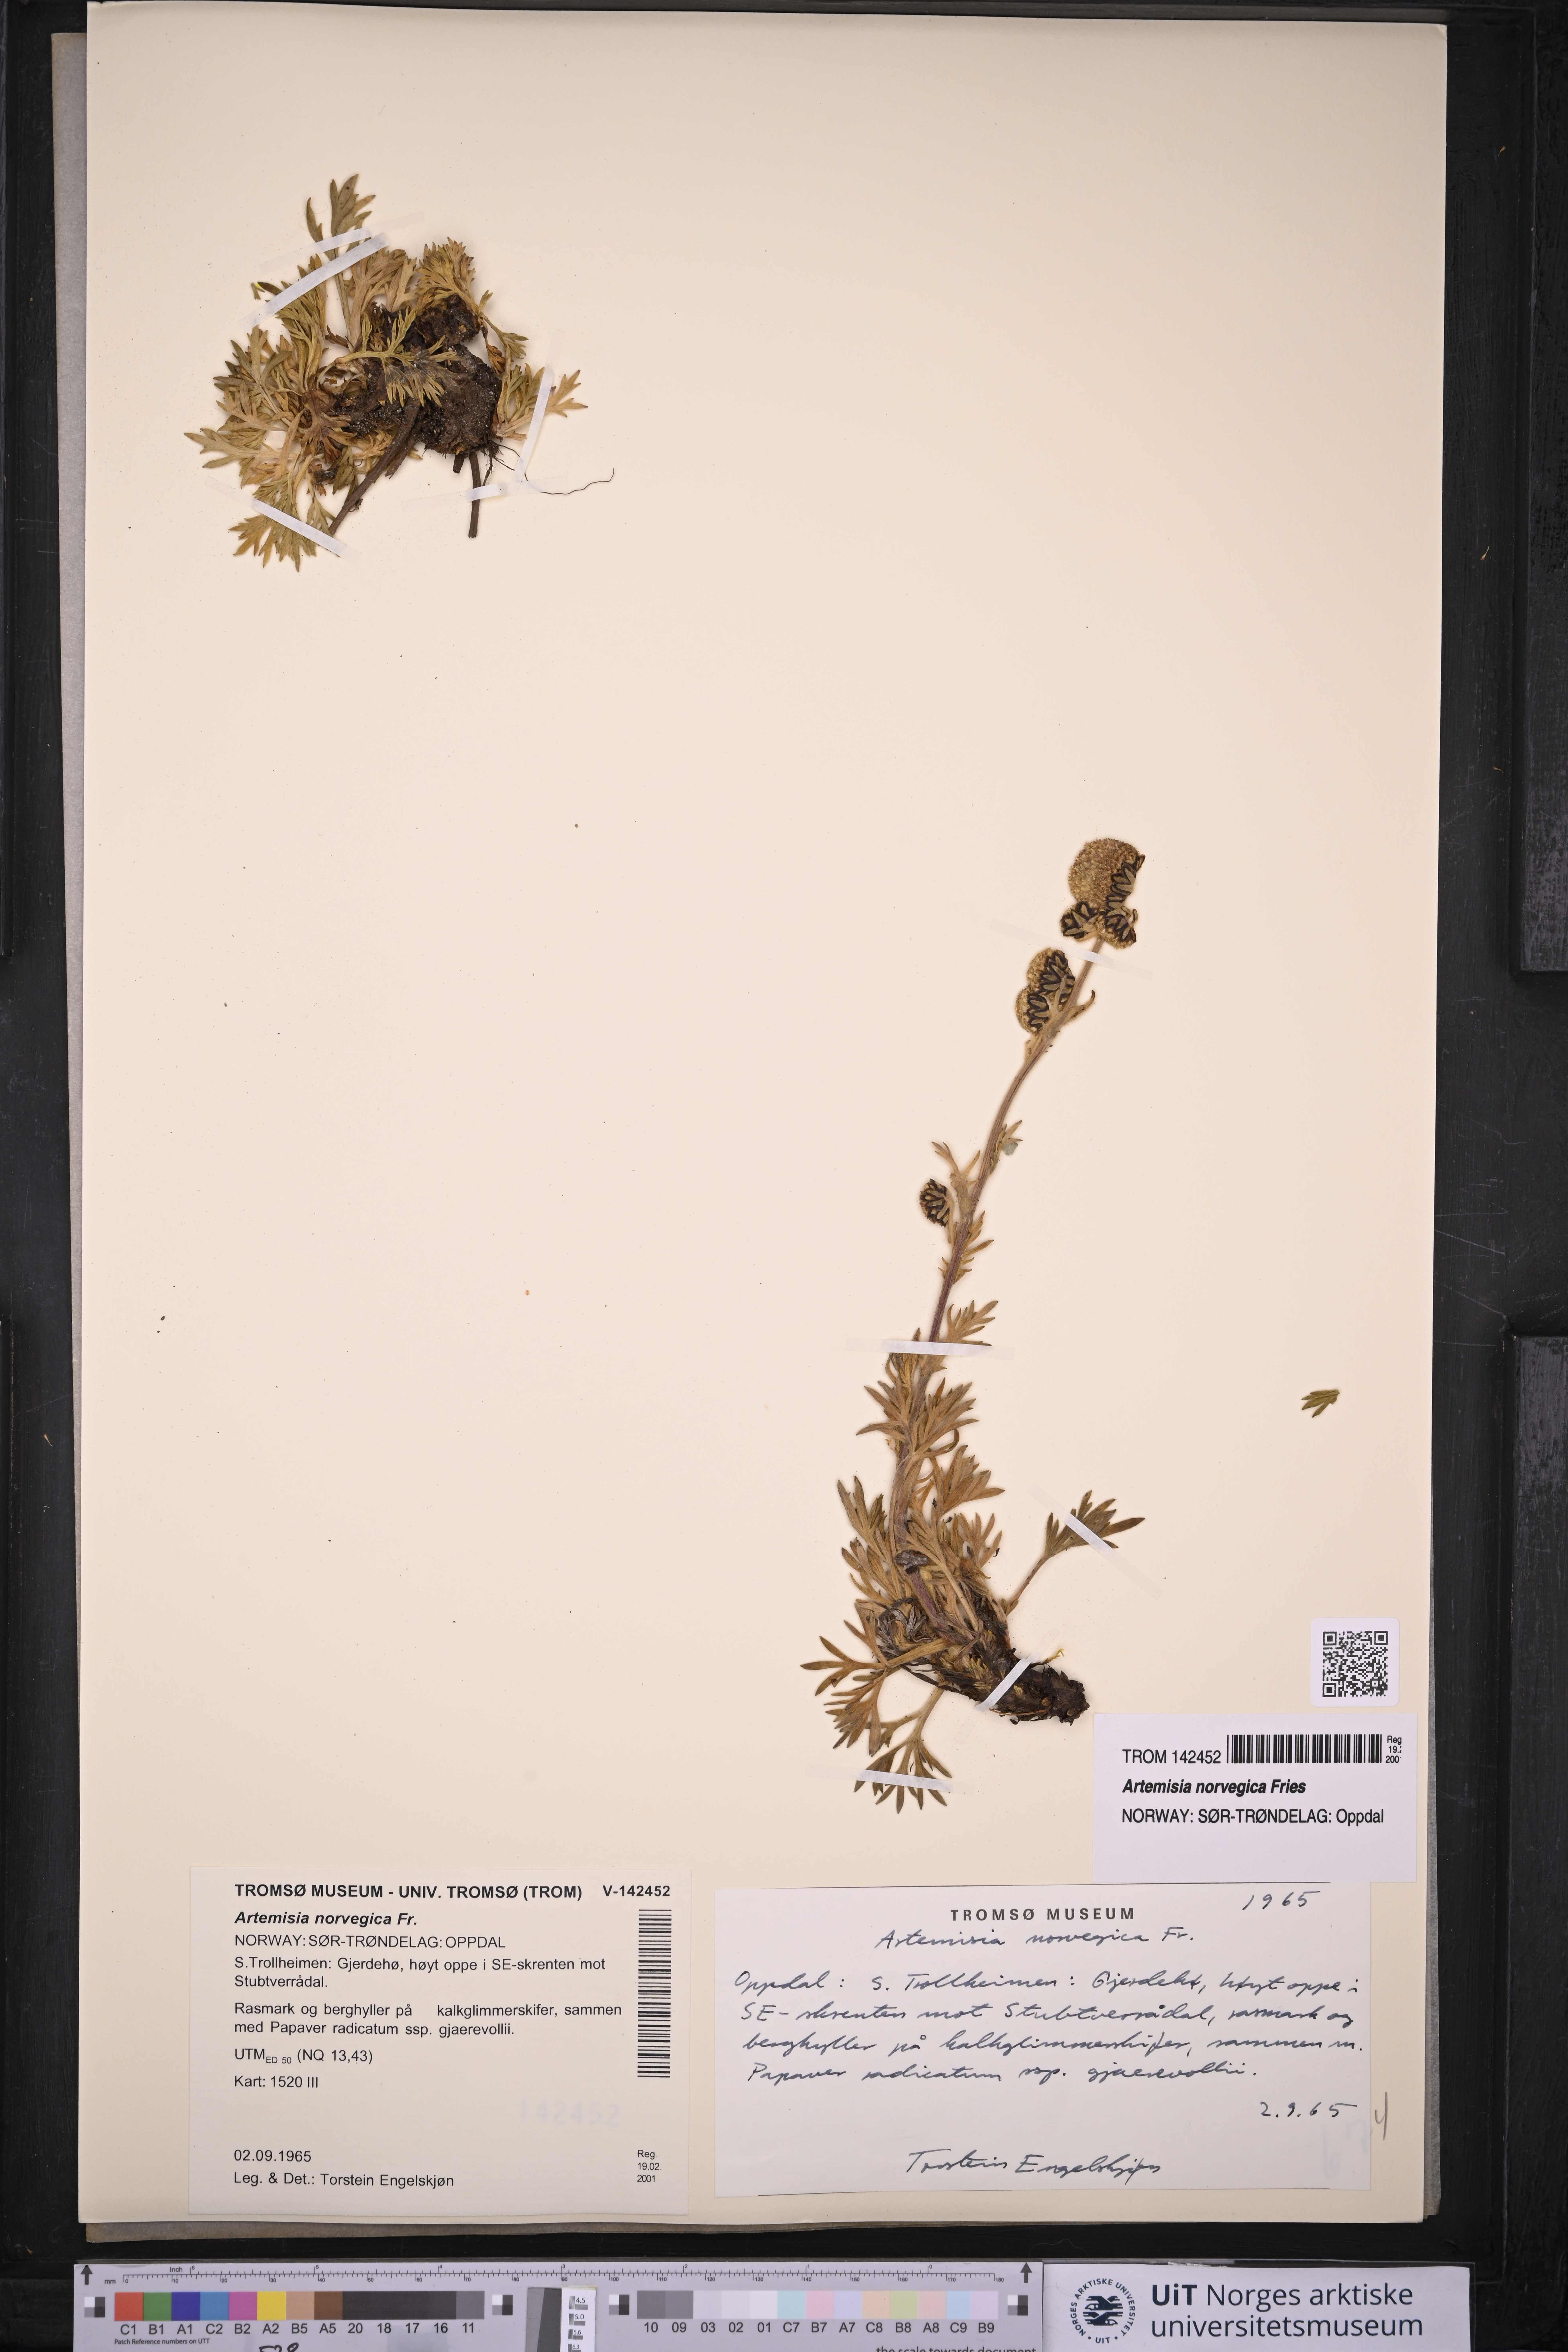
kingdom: Plantae
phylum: Tracheophyta
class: Magnoliopsida
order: Asterales
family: Asteraceae
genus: Artemisia
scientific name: Artemisia norvegica
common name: Norwegian mugwort
